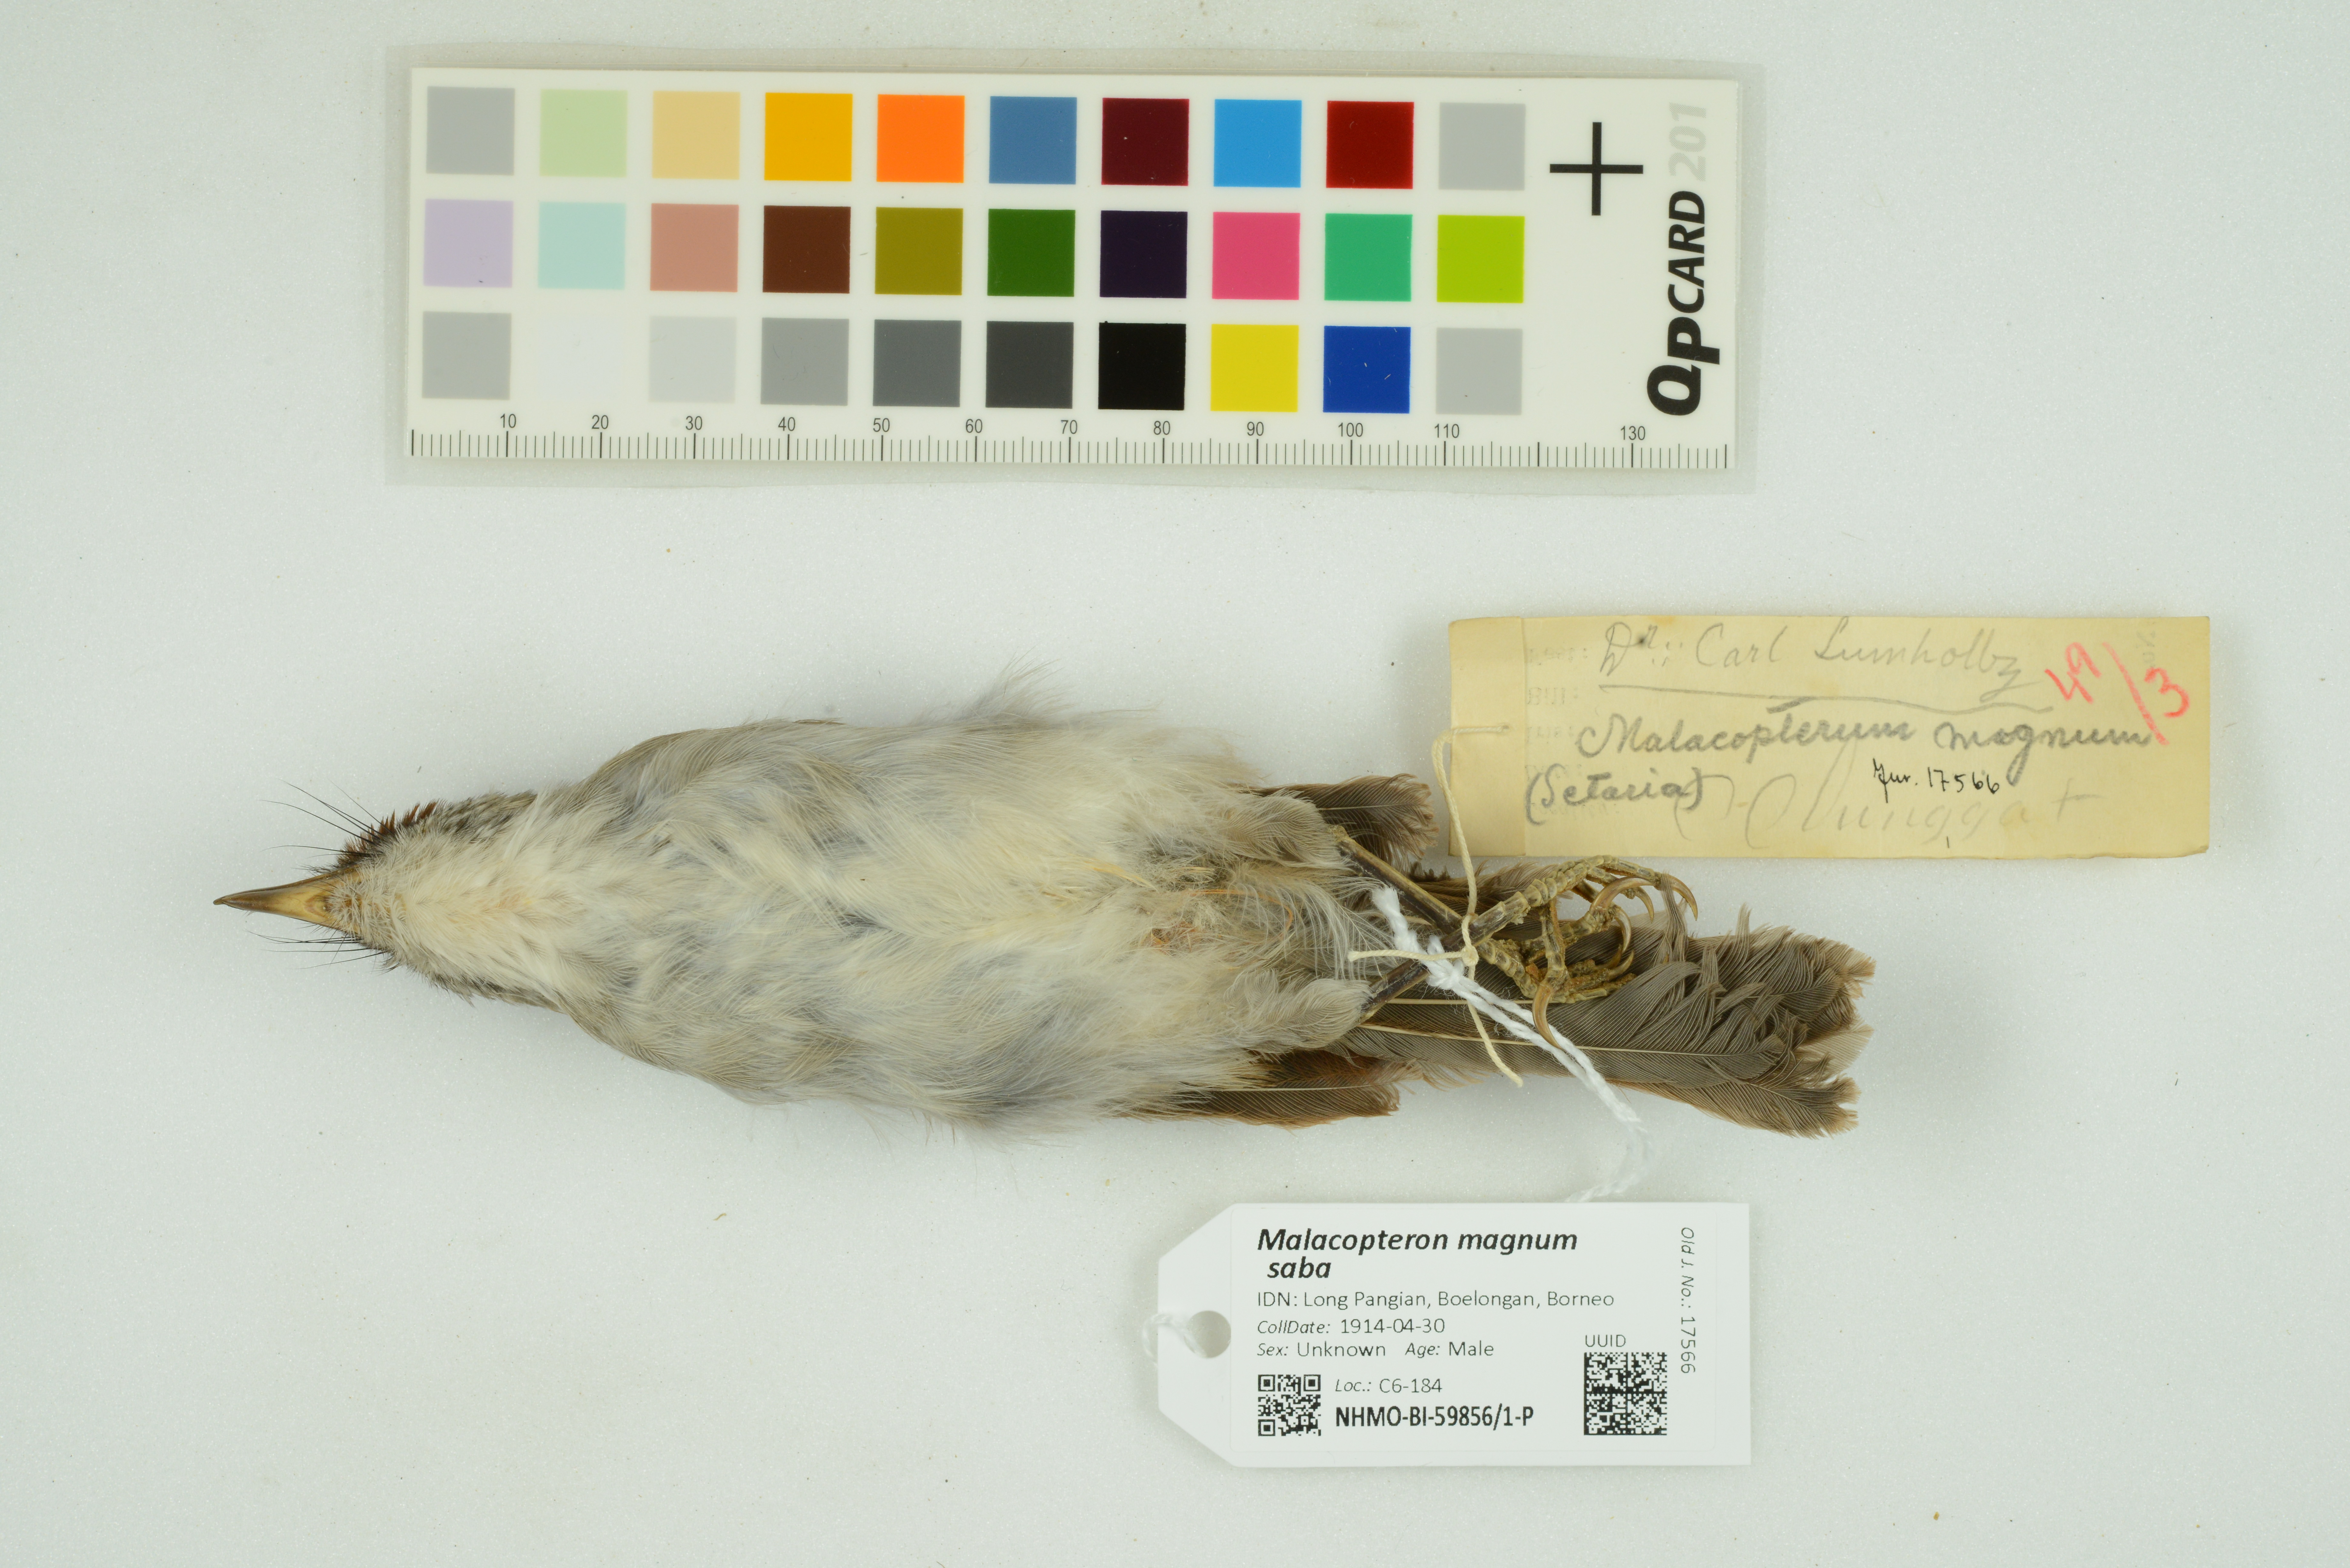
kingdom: Animalia
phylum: Chordata
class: Aves
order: Passeriformes
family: Pellorneidae
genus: Malacopteron
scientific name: Malacopteron magnum
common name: Rufous-crowned babbler
